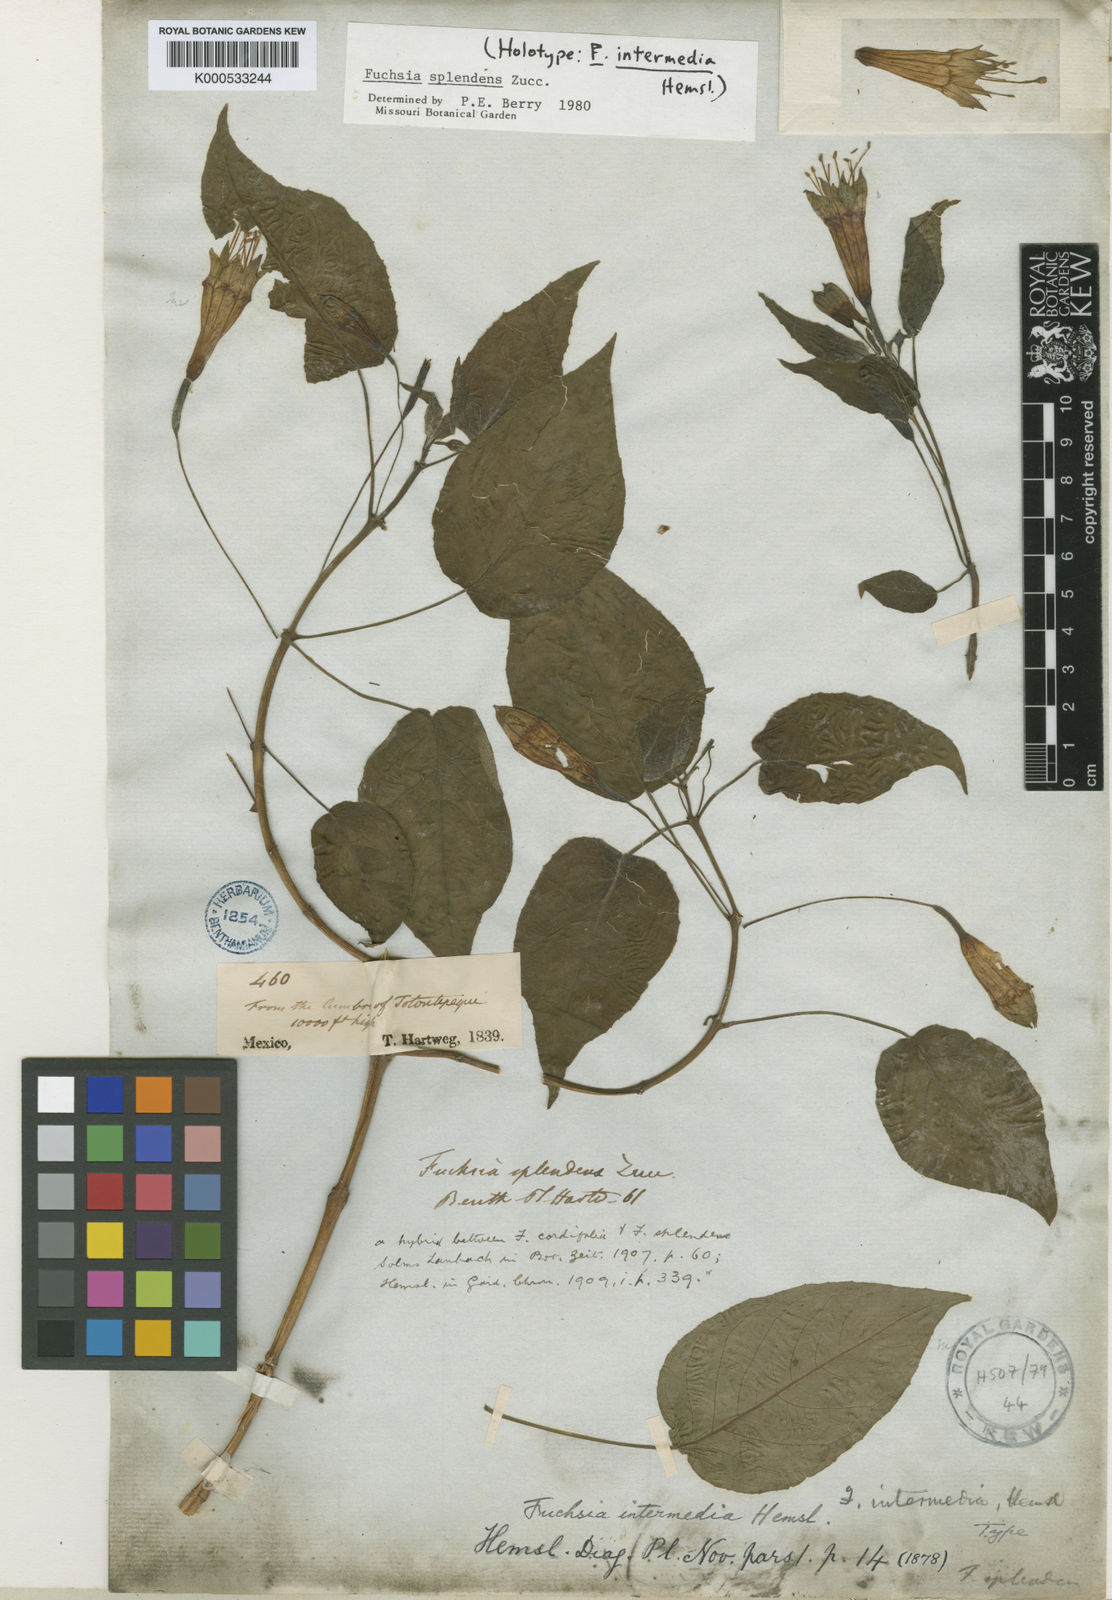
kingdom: Plantae
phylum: Tracheophyta
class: Magnoliopsida
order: Myrtales
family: Onagraceae
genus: Fuchsia
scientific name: Fuchsia splendens
